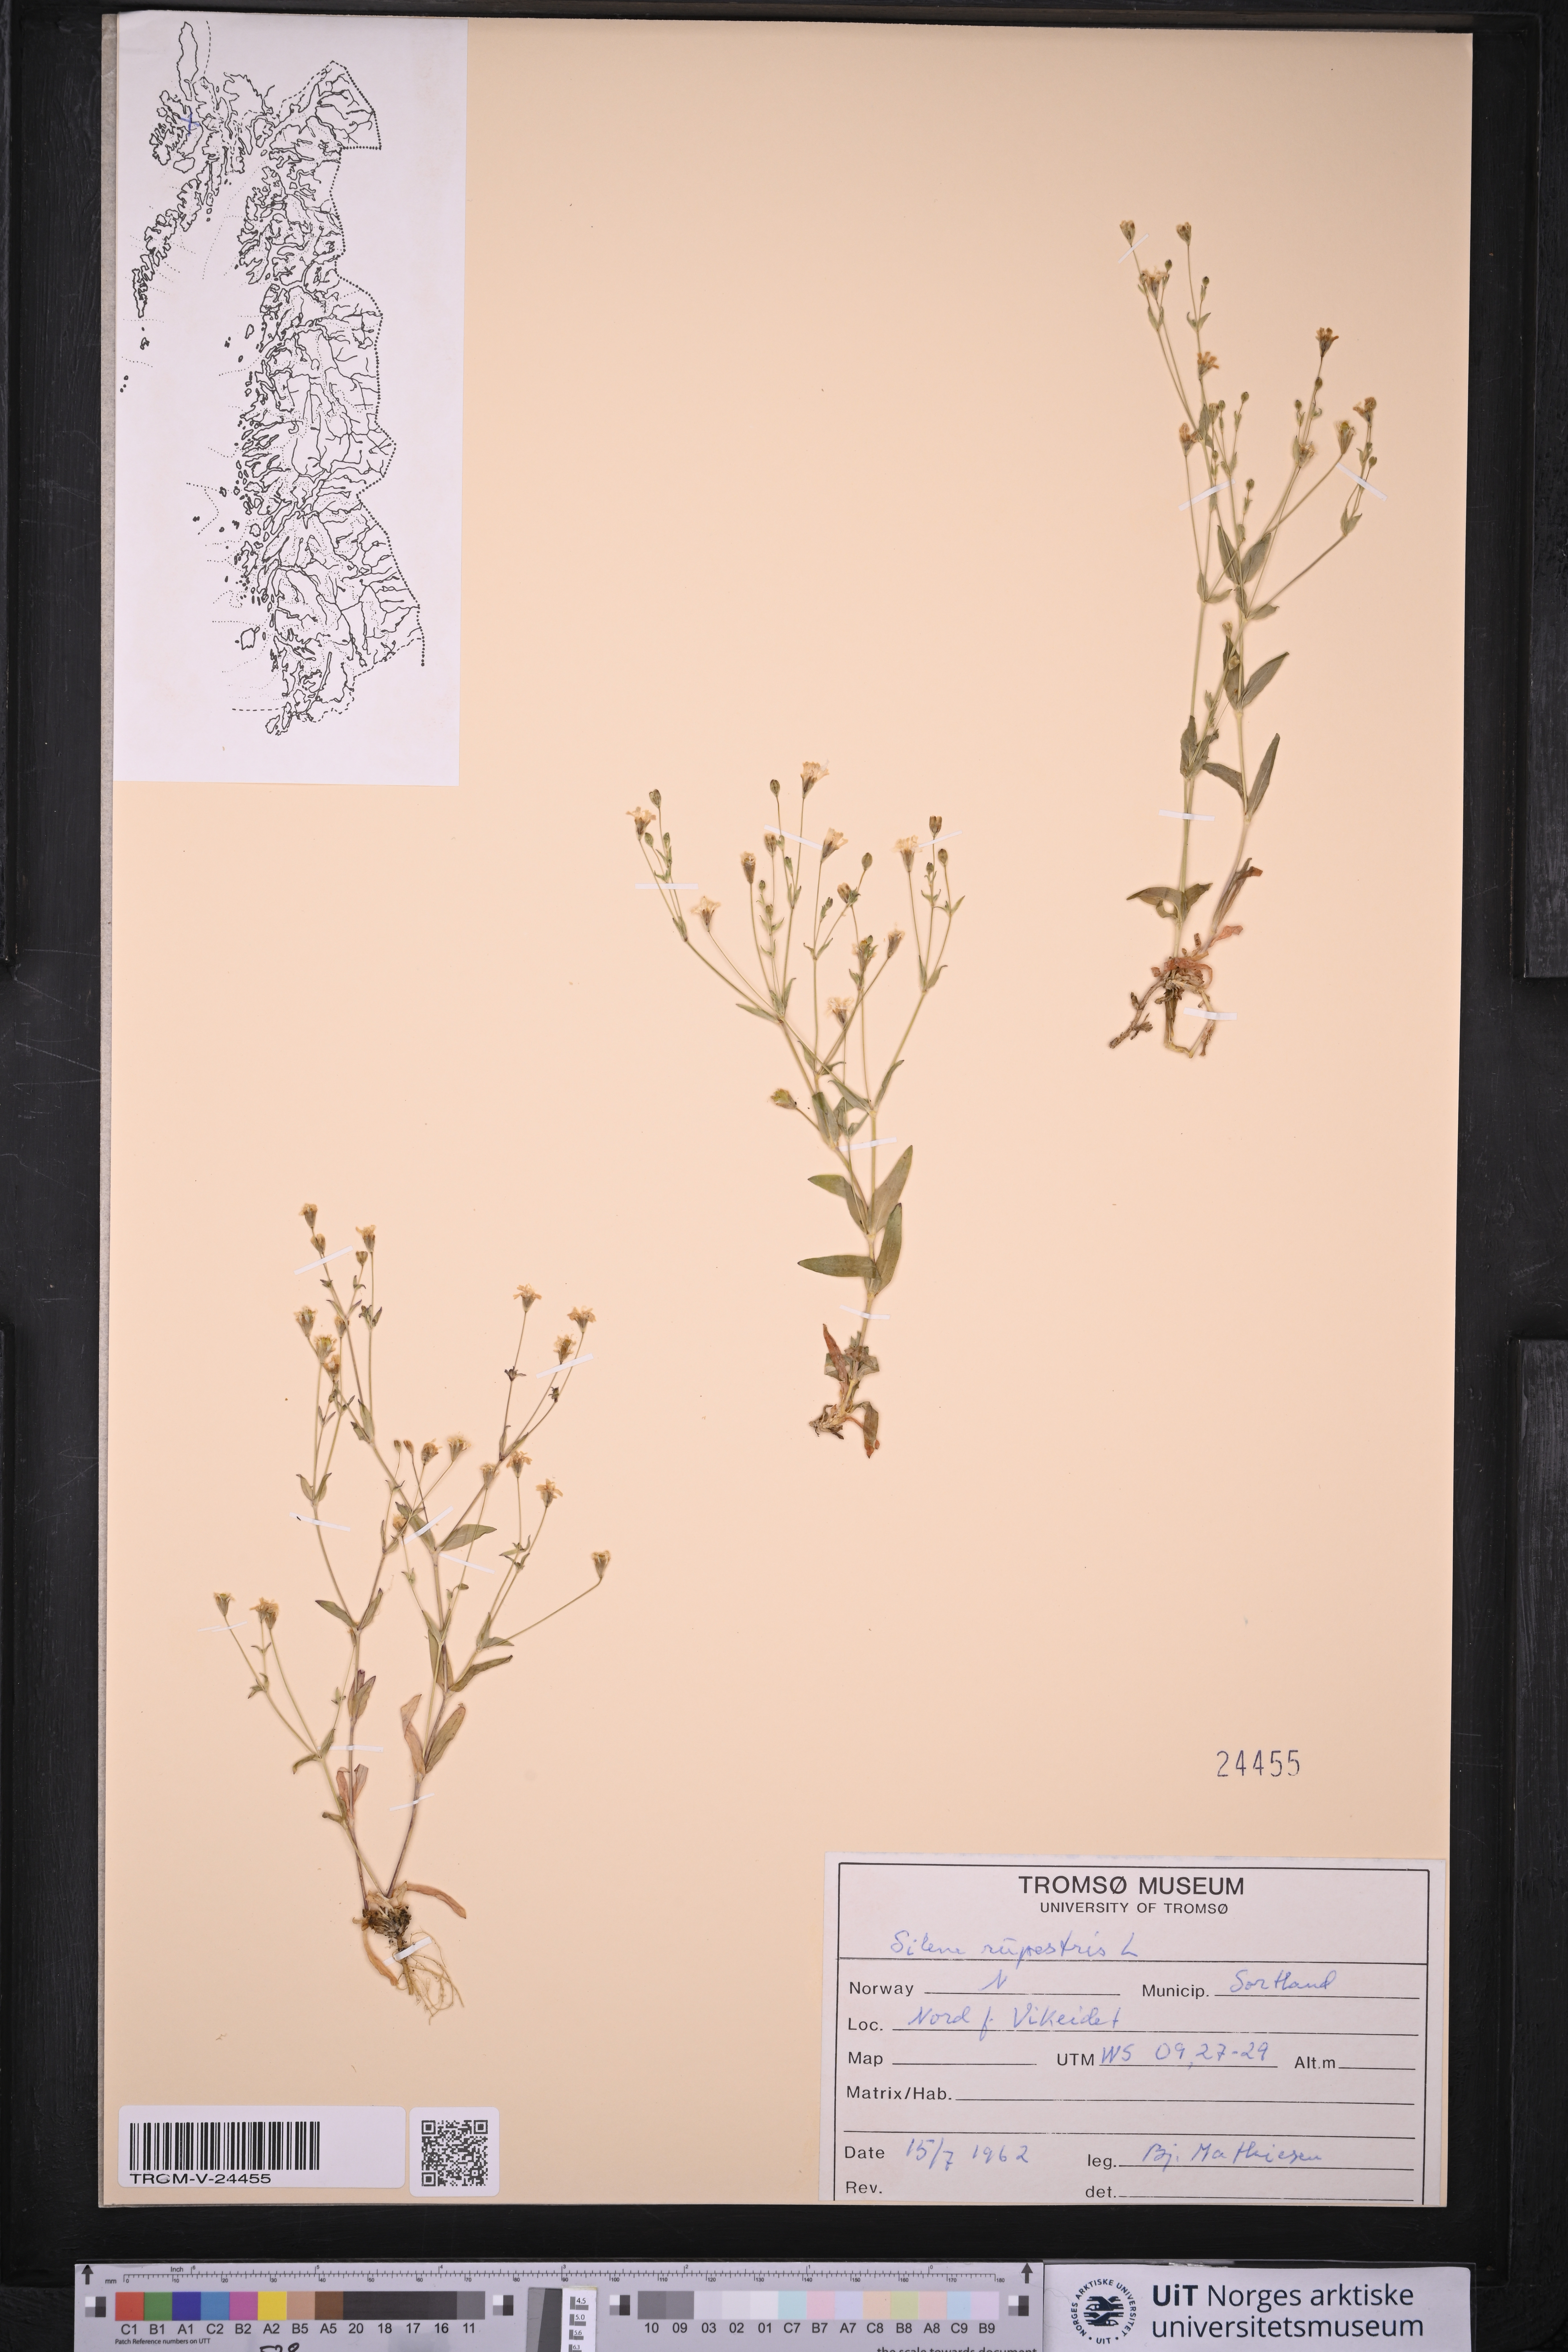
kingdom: Plantae
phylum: Tracheophyta
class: Magnoliopsida
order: Caryophyllales
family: Caryophyllaceae
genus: Atocion
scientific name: Atocion rupestre
